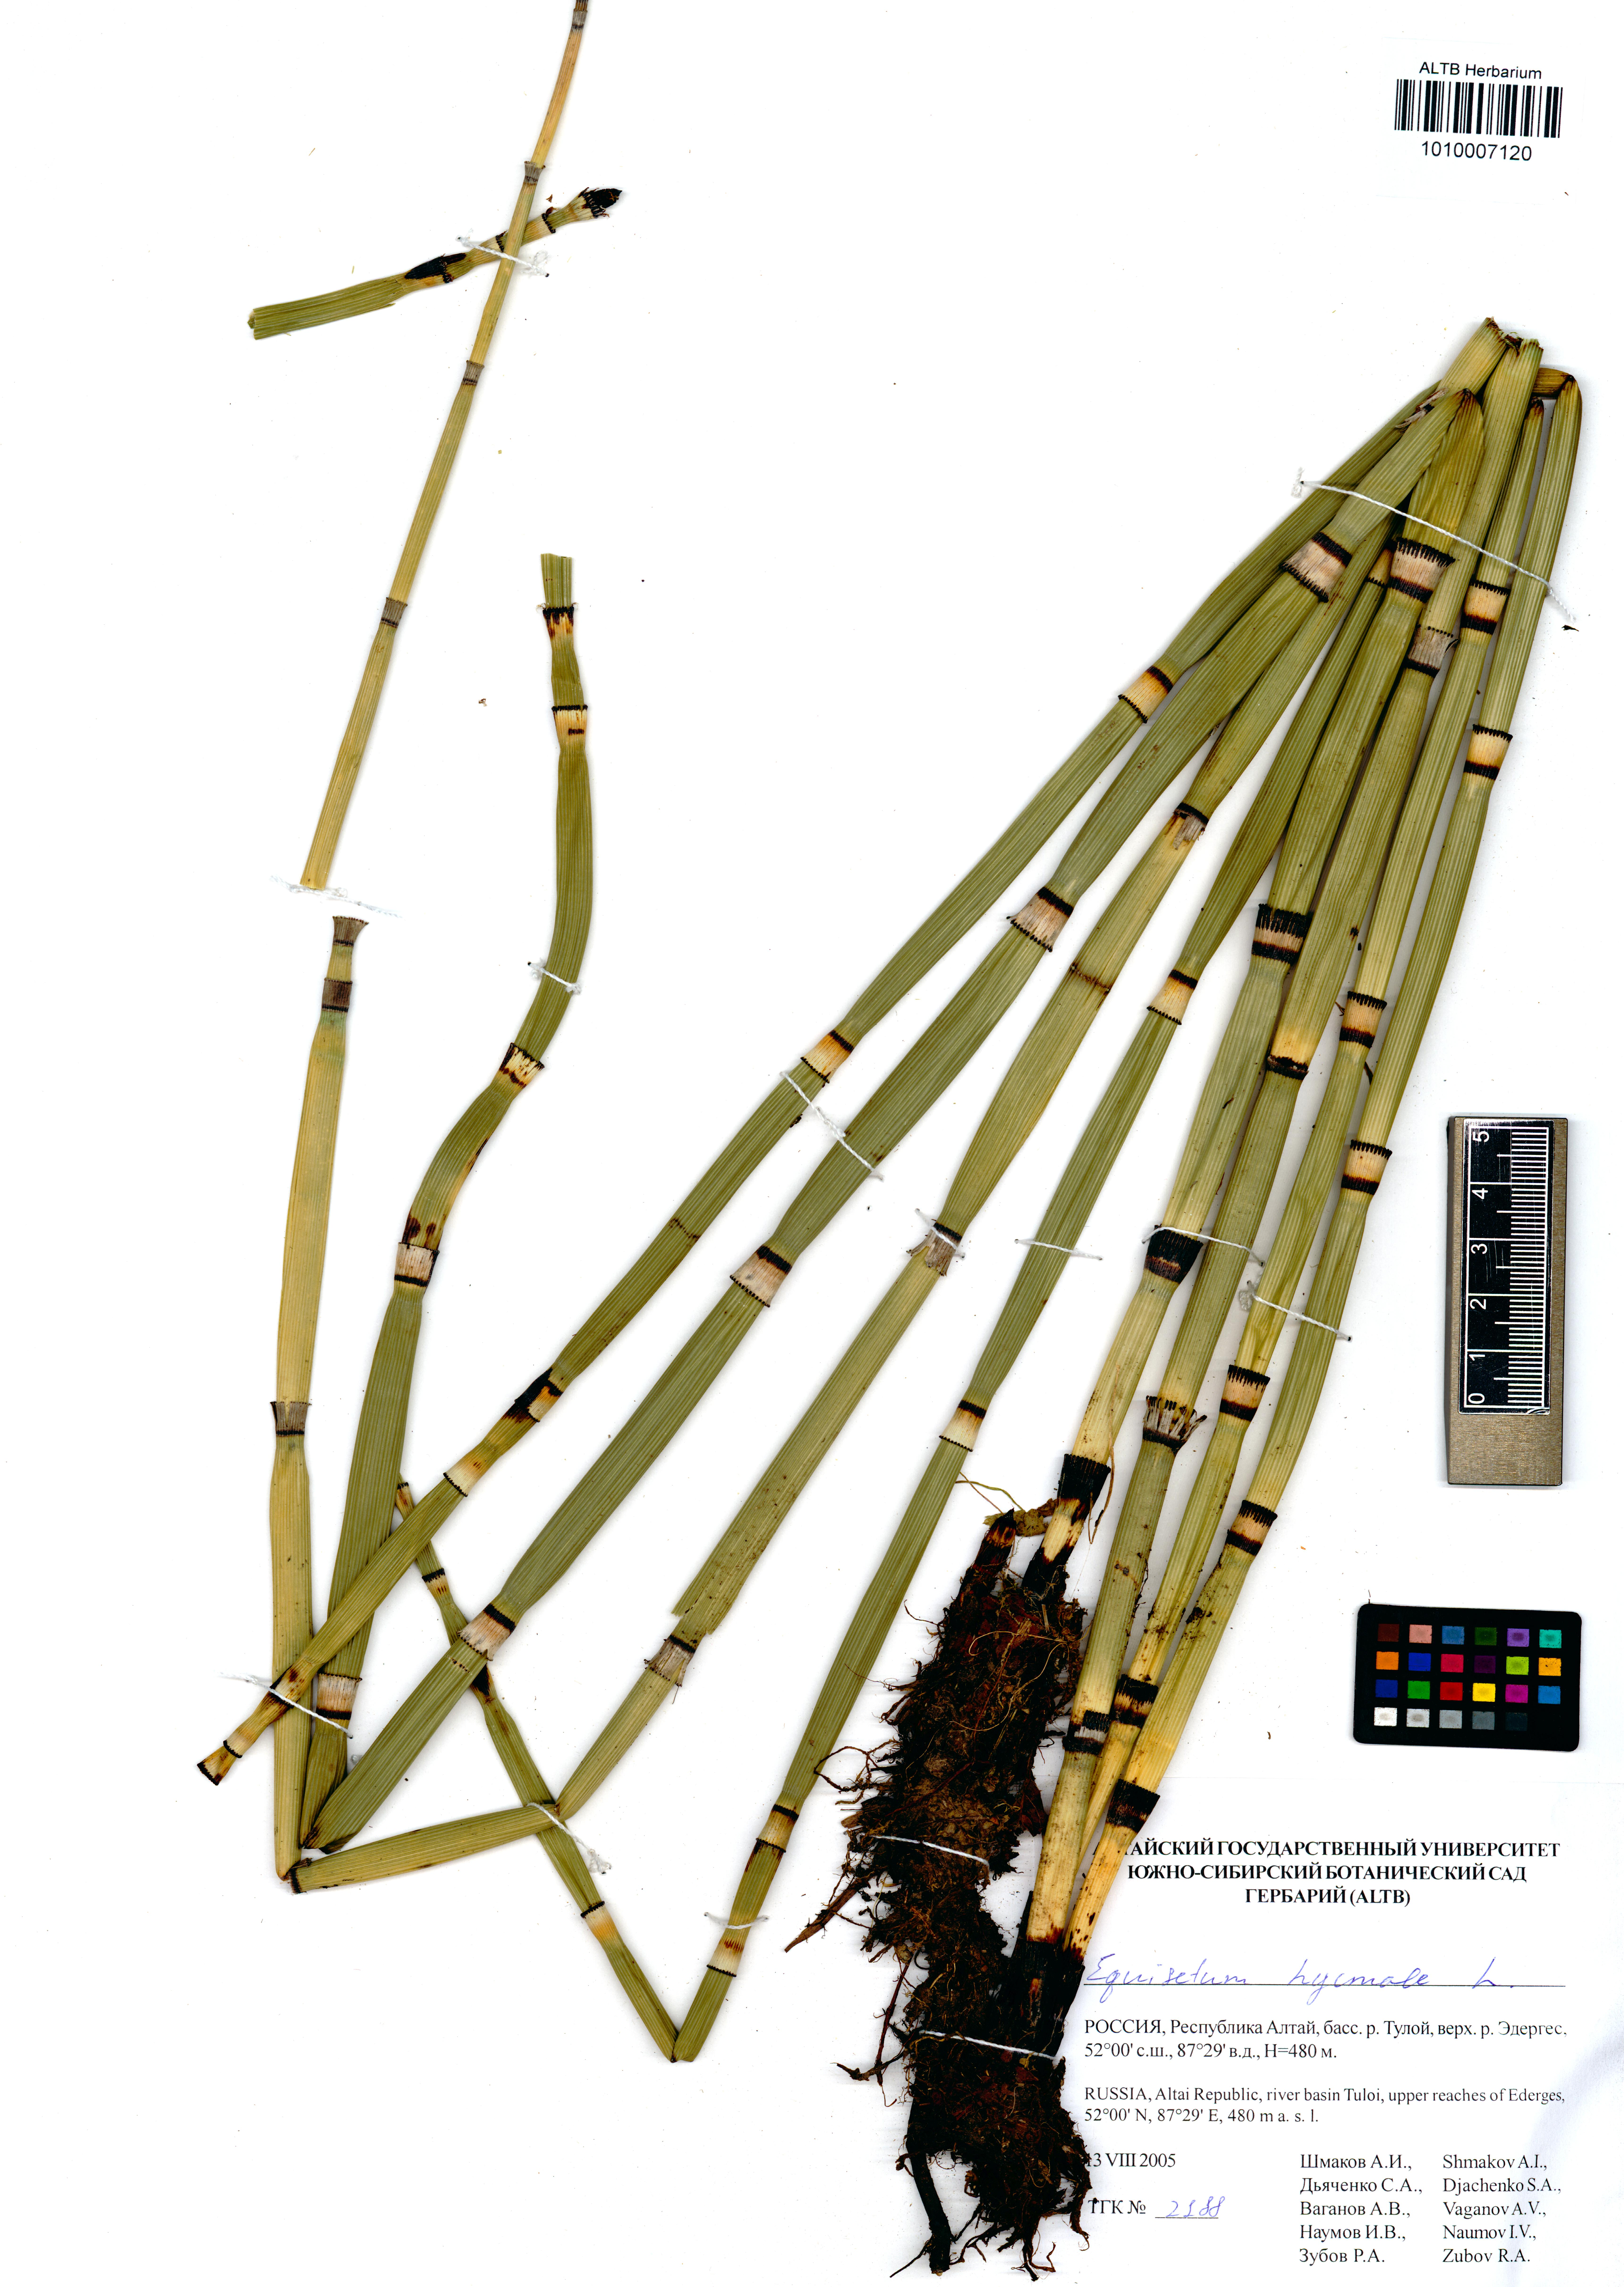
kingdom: Plantae
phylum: Tracheophyta
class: Polypodiopsida
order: Equisetales
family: Equisetaceae
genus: Equisetum
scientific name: Equisetum hyemale
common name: Rough horsetail
